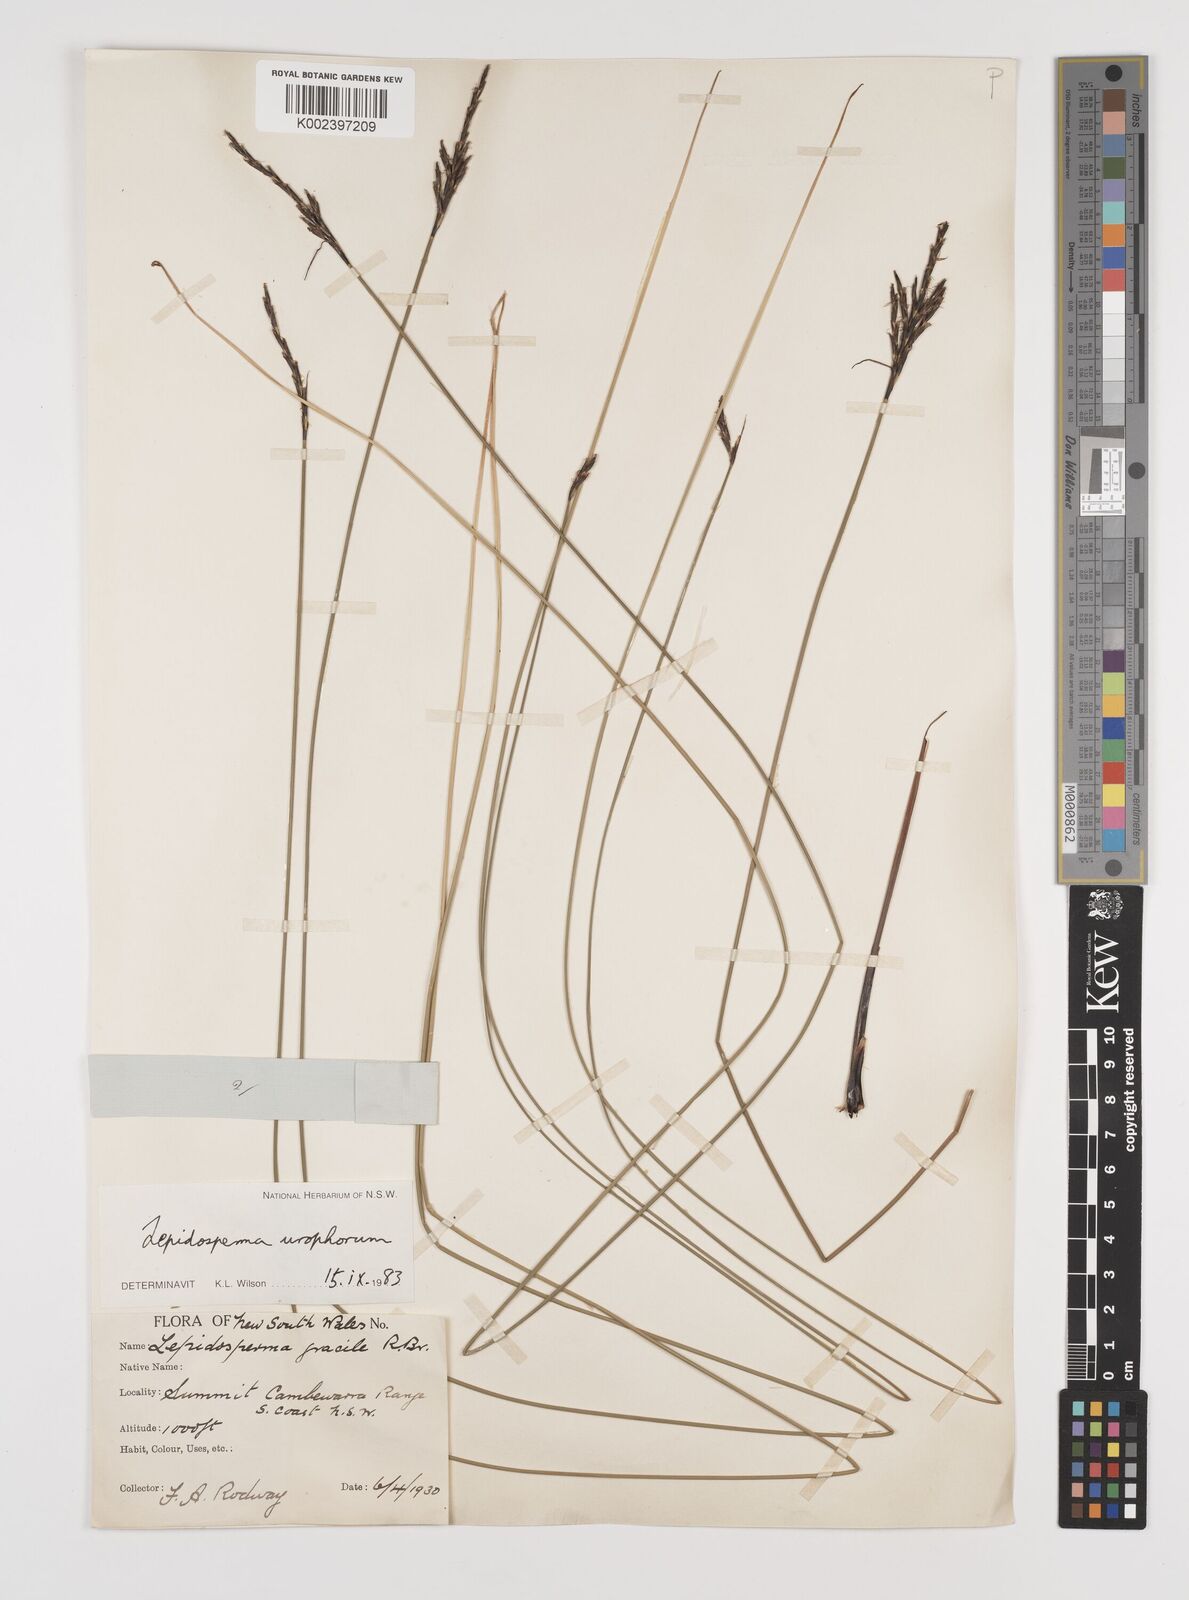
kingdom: Plantae
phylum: Tracheophyta
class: Liliopsida
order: Poales
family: Cyperaceae
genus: Lepidosperma
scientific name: Lepidosperma urophorum
